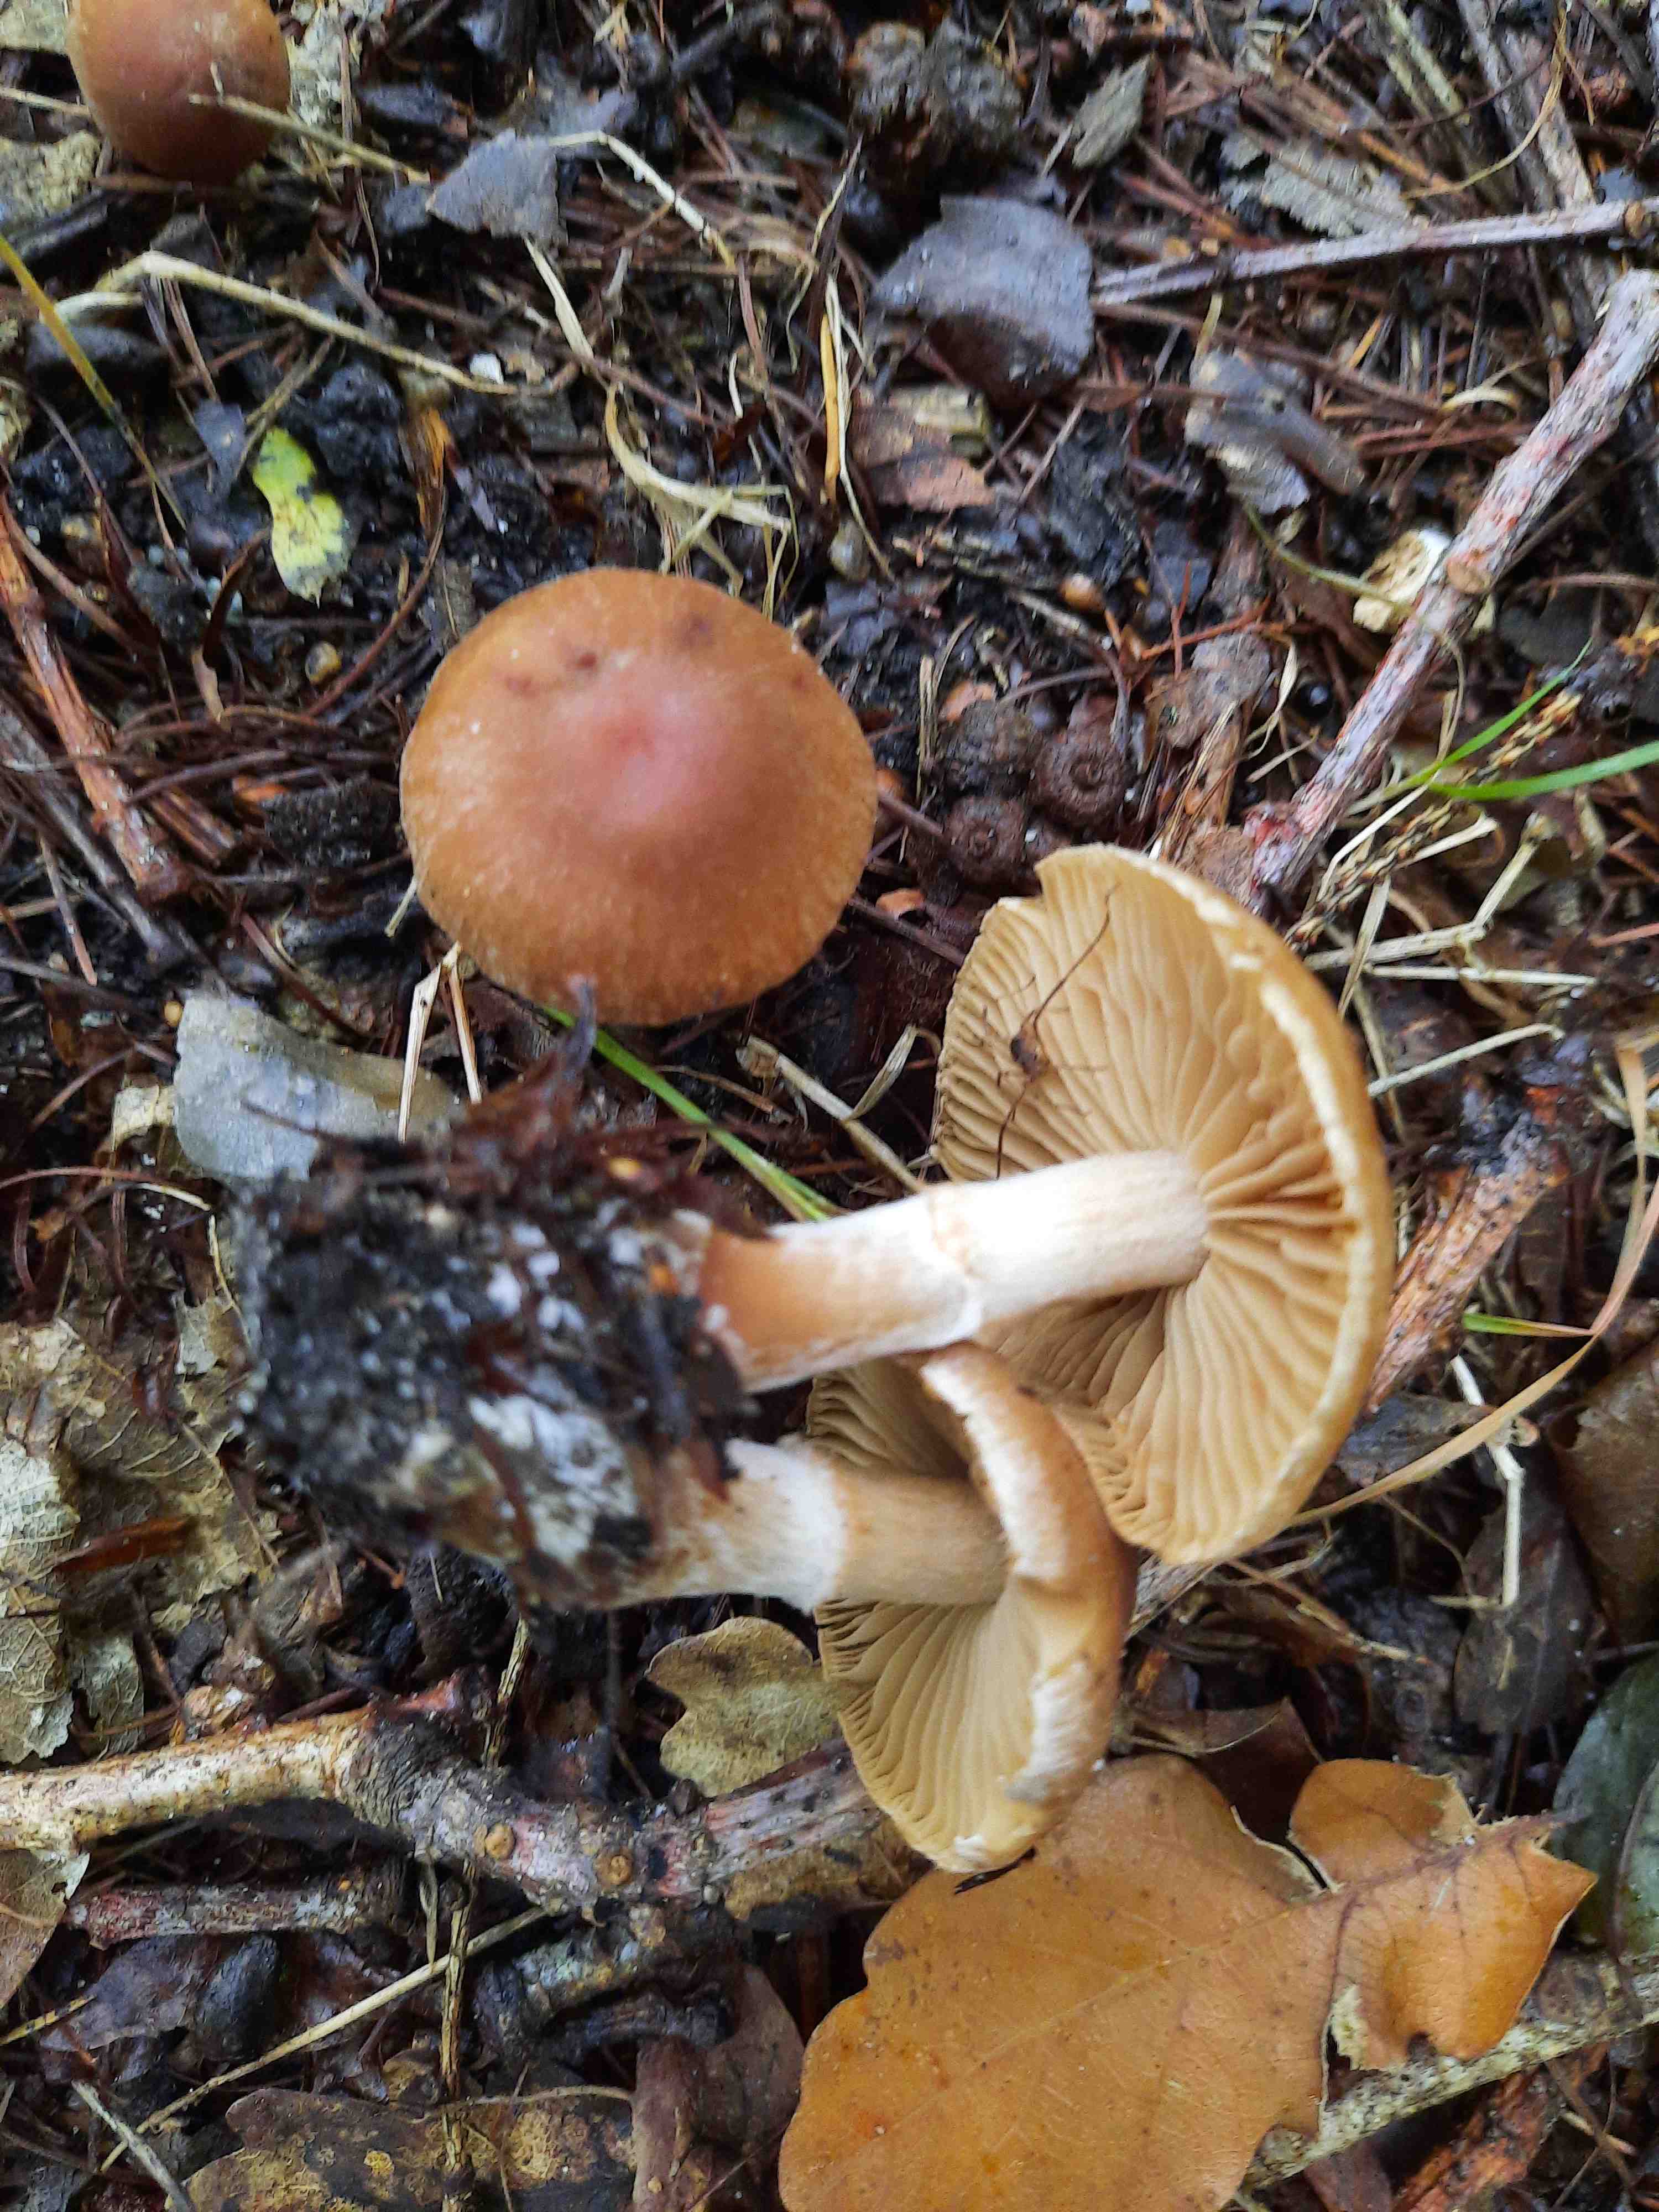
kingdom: Fungi
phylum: Basidiomycota
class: Agaricomycetes
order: Agaricales
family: Cortinariaceae
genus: Cortinarius
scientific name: Cortinarius epipurrus
